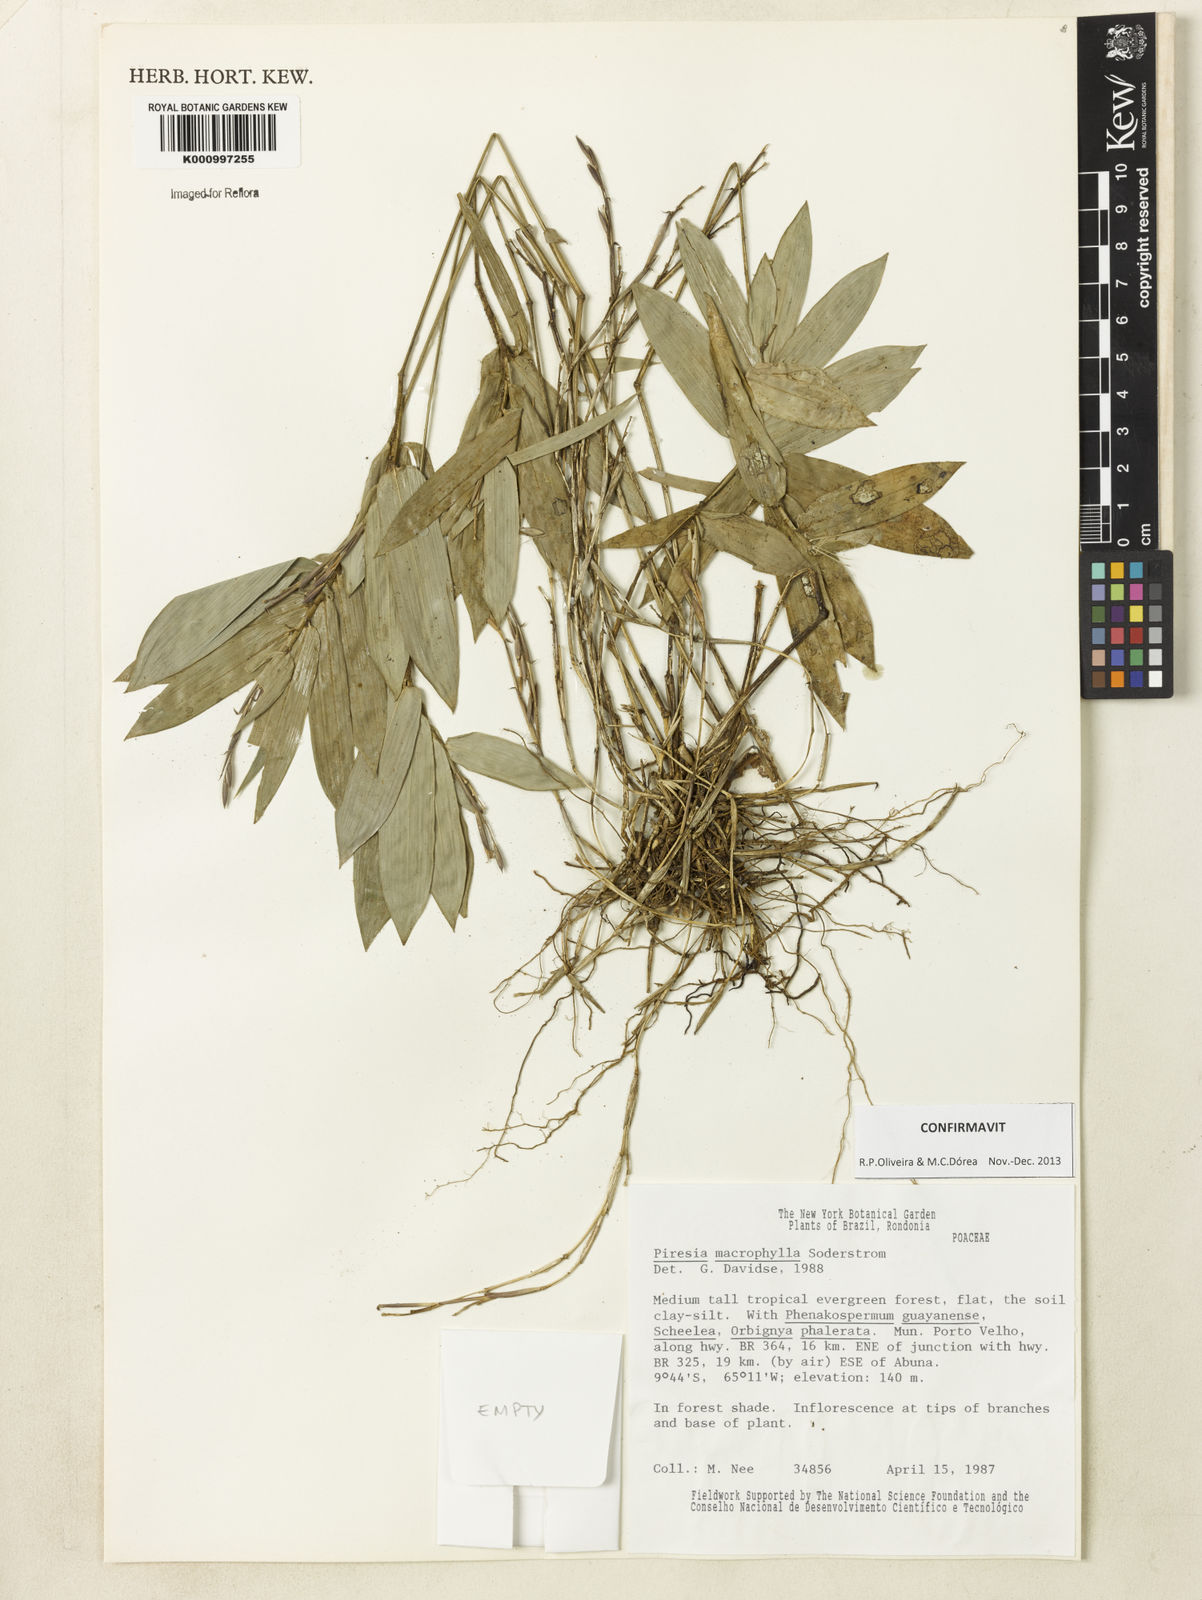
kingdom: Plantae
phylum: Tracheophyta
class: Liliopsida
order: Poales
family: Poaceae
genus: Piresia
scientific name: Piresia macrophylla
